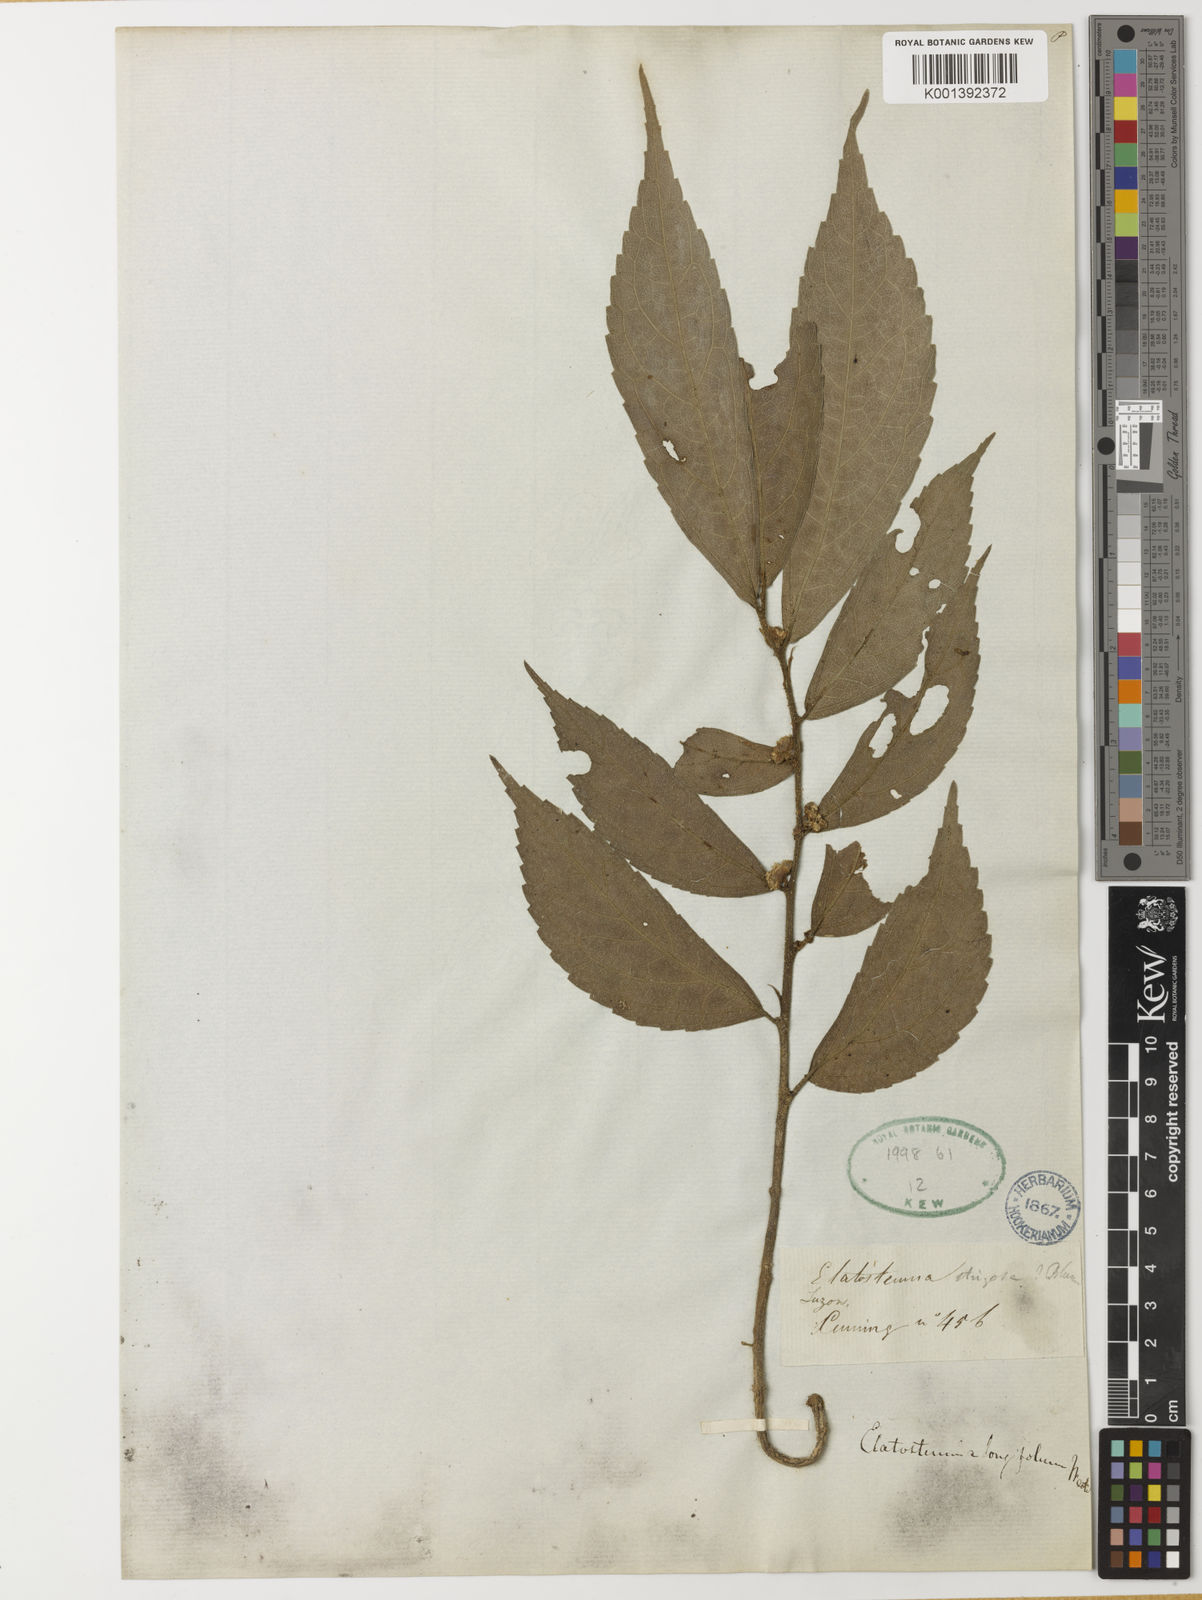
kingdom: Plantae
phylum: Tracheophyta
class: Magnoliopsida
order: Rosales
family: Urticaceae
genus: Elatostema
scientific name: Elatostema longifolium
